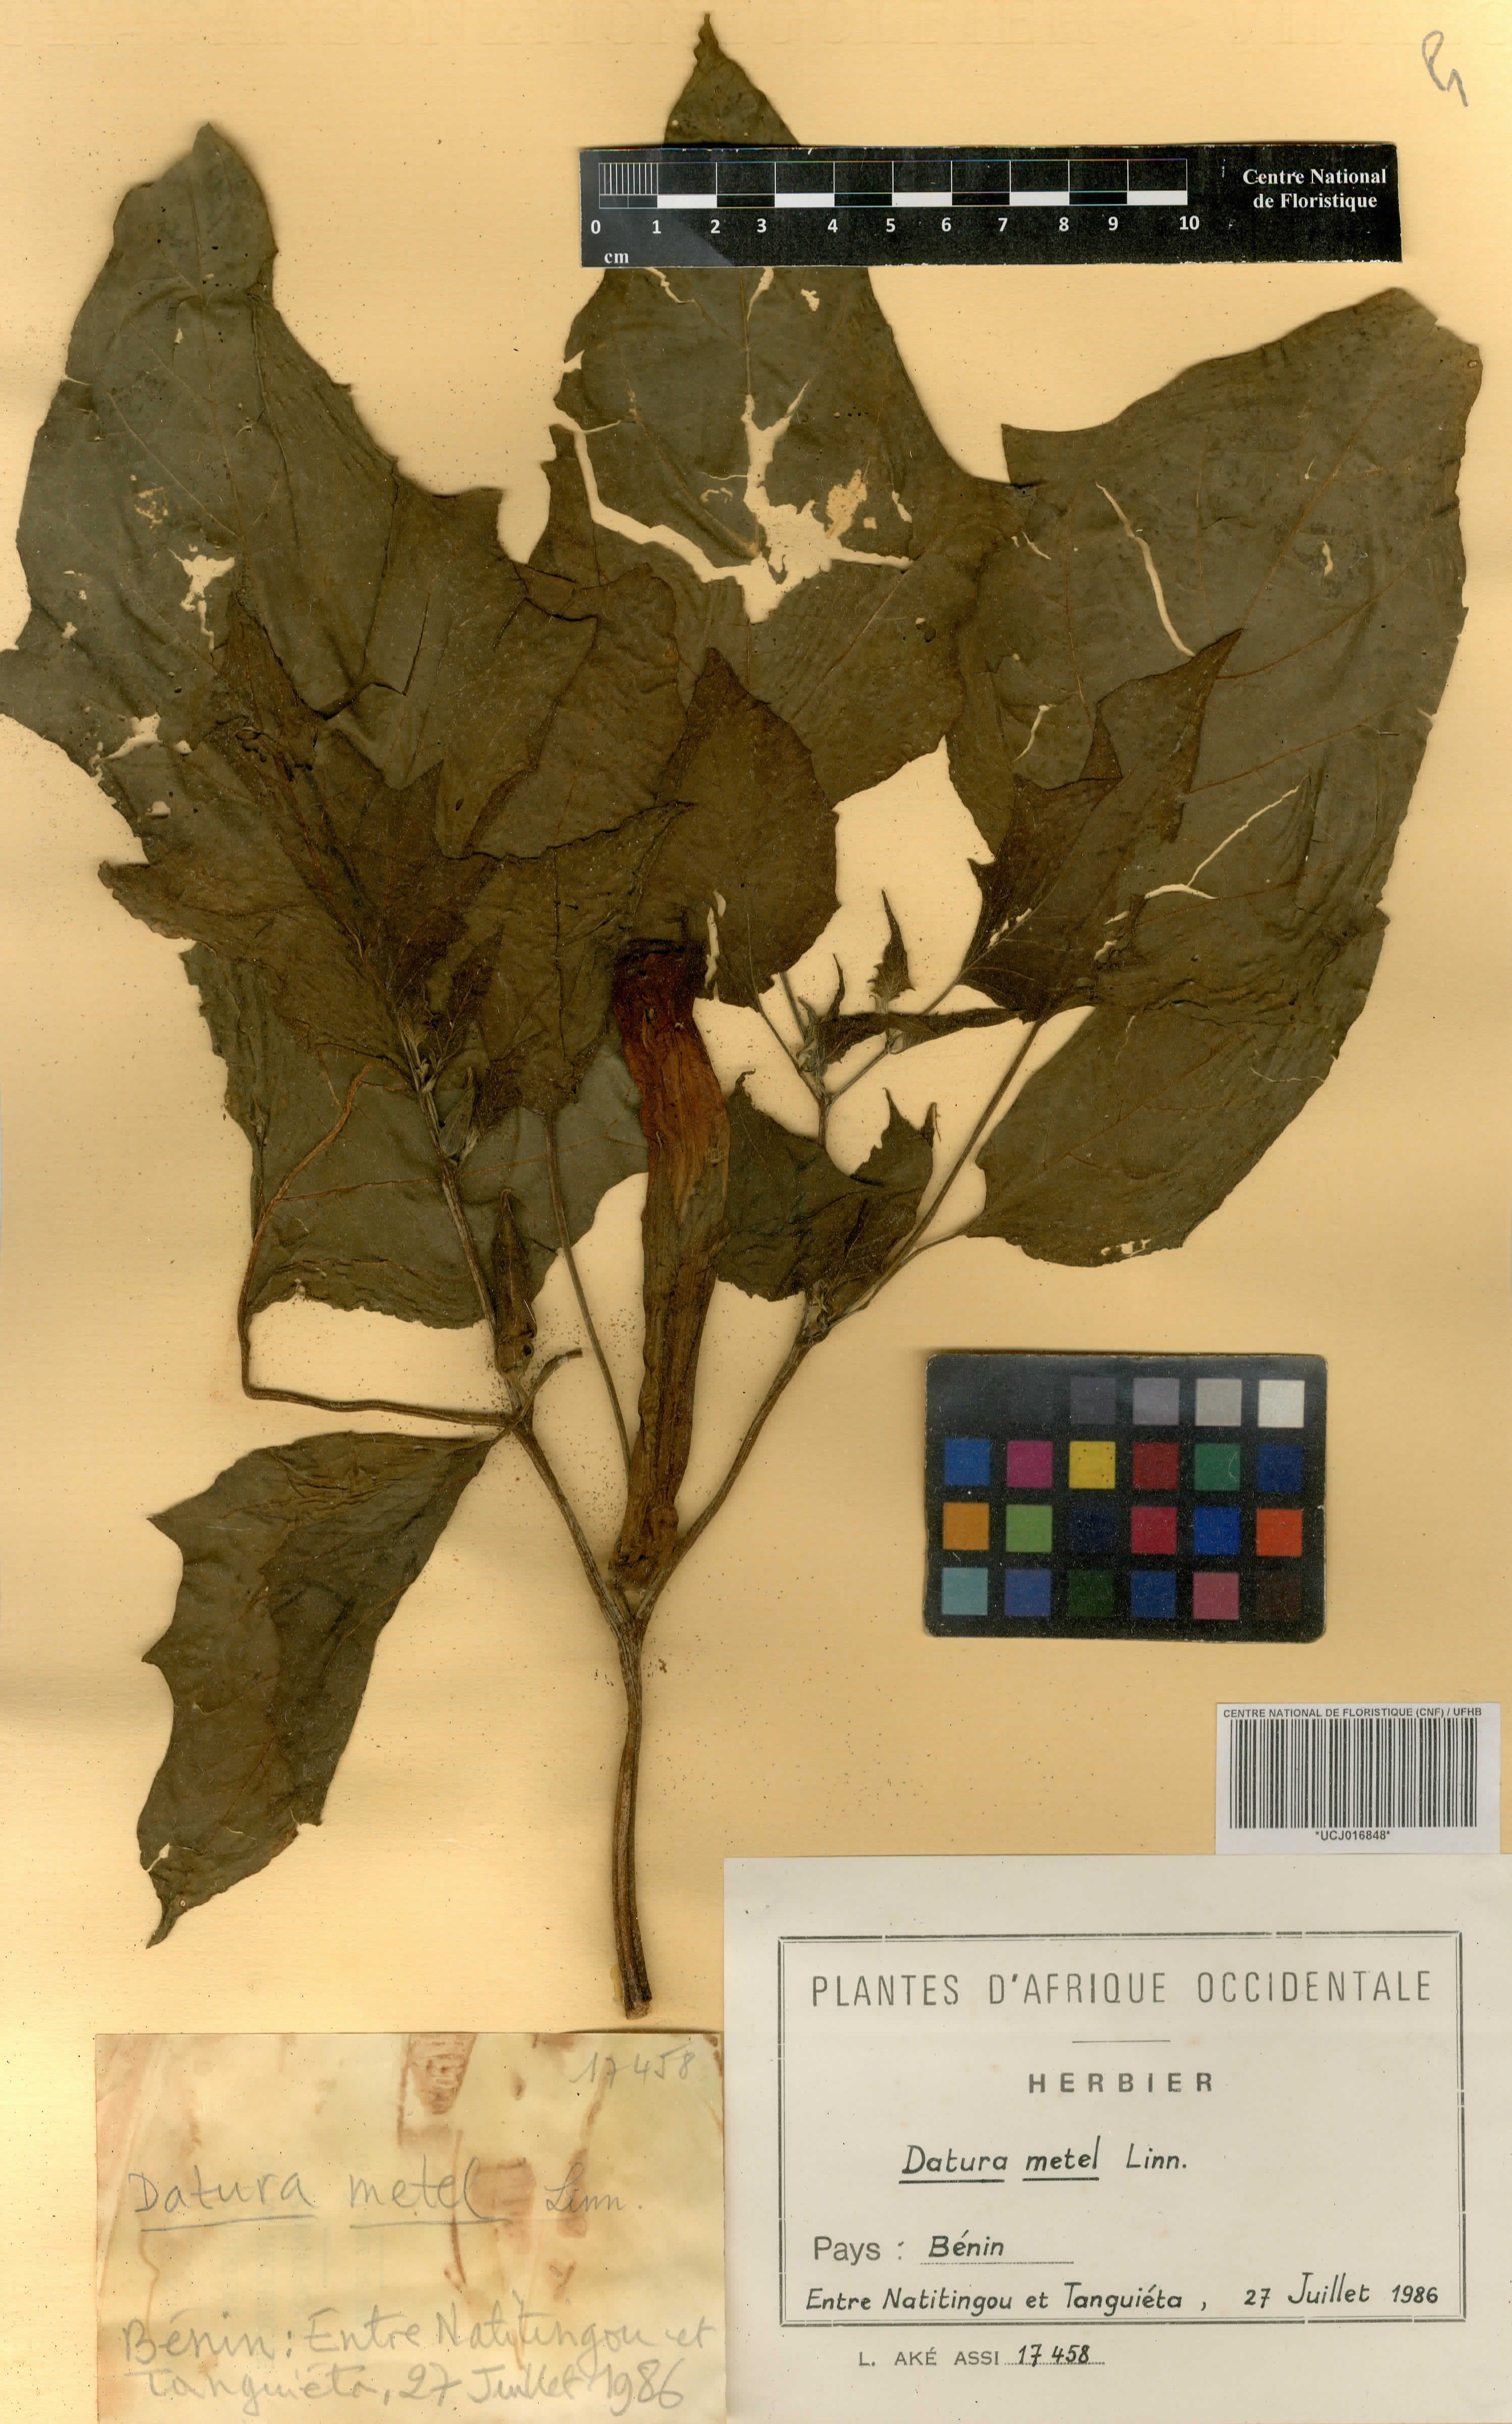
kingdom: Plantae
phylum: Tracheophyta
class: Magnoliopsida
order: Solanales
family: Solanaceae
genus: Datura
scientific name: Datura metel
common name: Jimsonweed
